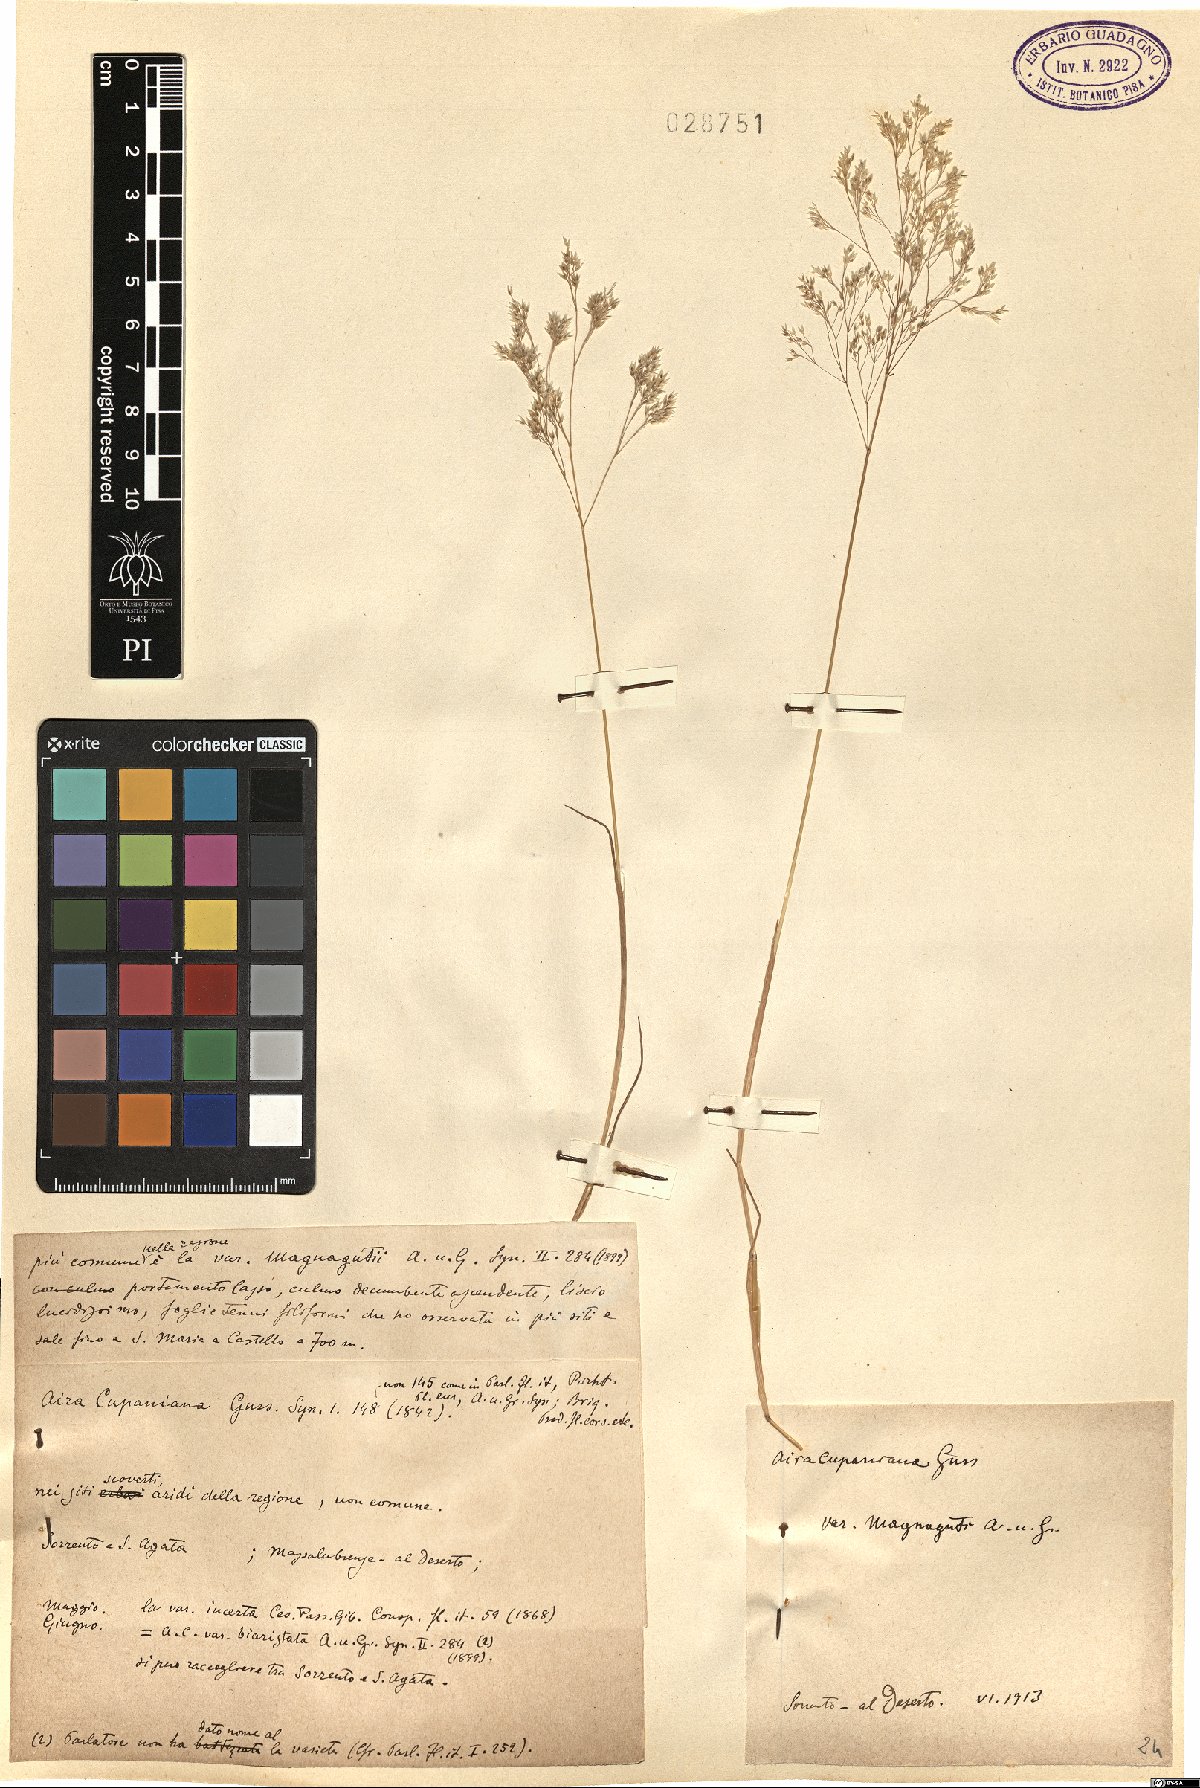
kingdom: Plantae
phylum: Tracheophyta
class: Liliopsida
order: Poales
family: Poaceae
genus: Aira
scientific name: Aira cupaniana
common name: Silver hairgrass
